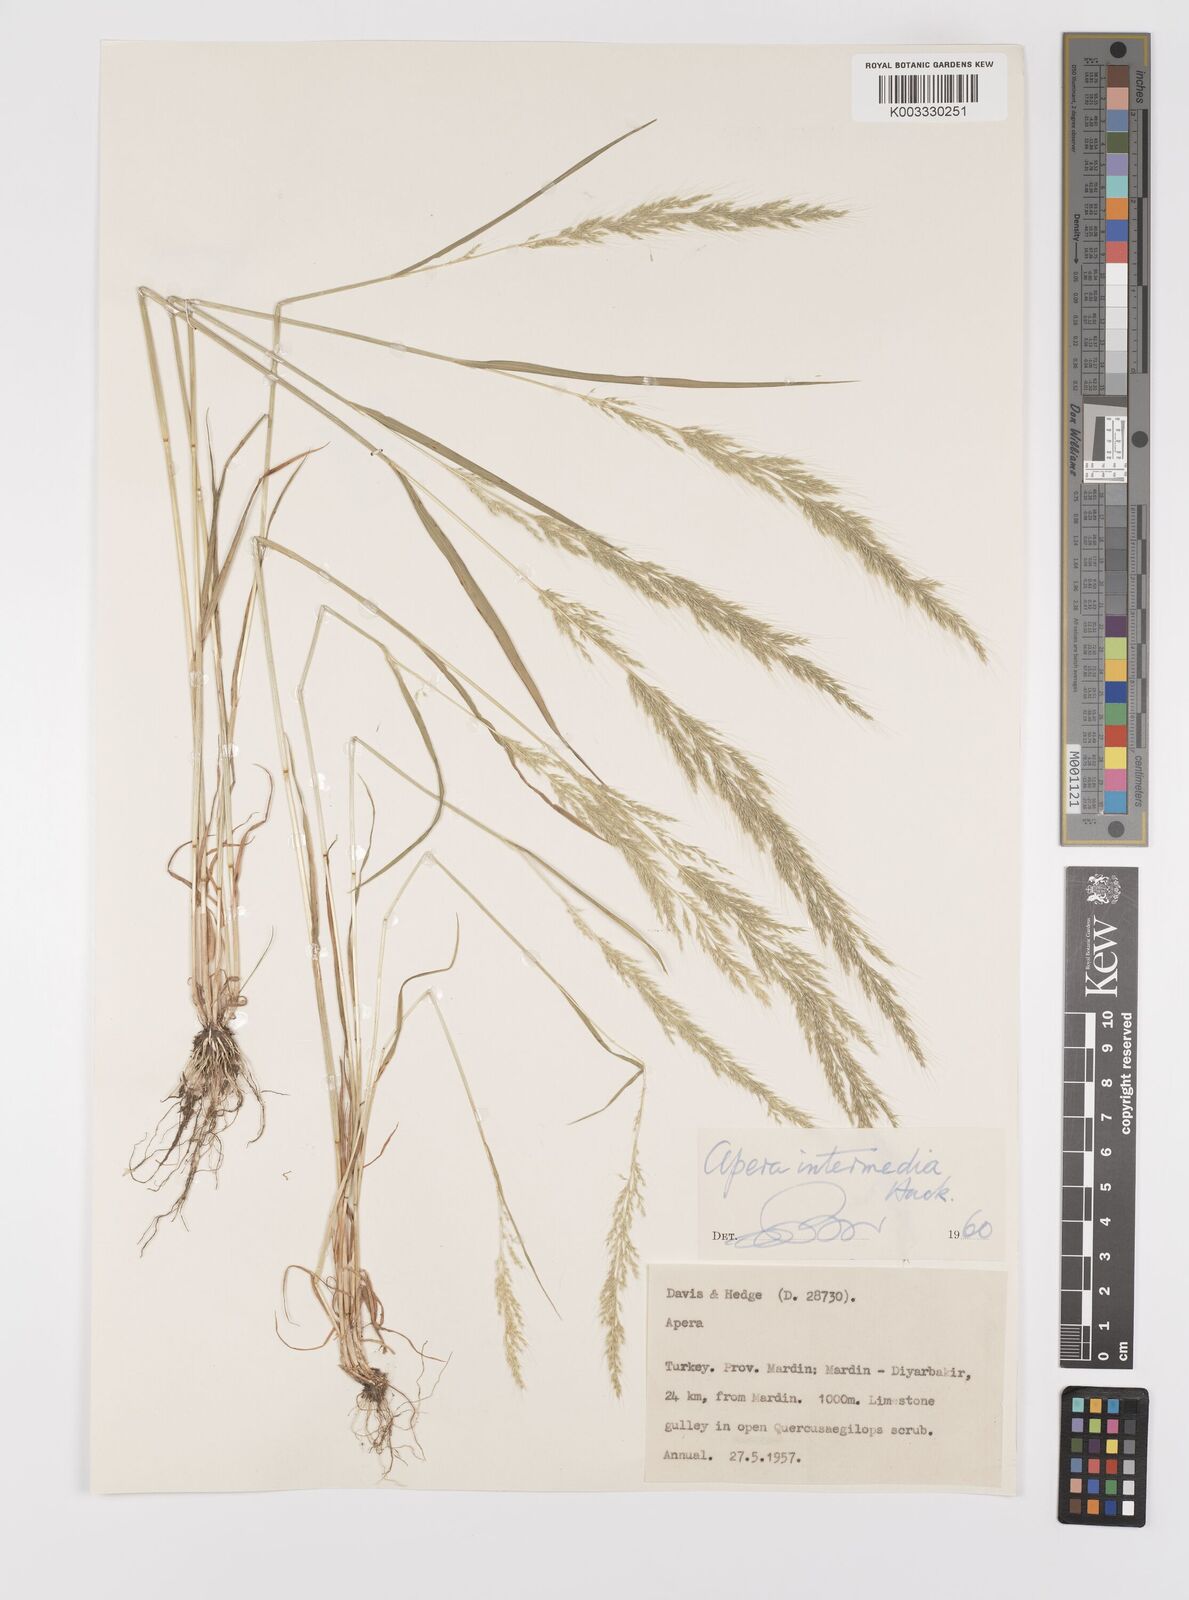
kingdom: Plantae
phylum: Tracheophyta
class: Liliopsida
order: Poales
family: Poaceae
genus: Apera
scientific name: Apera intermedia
